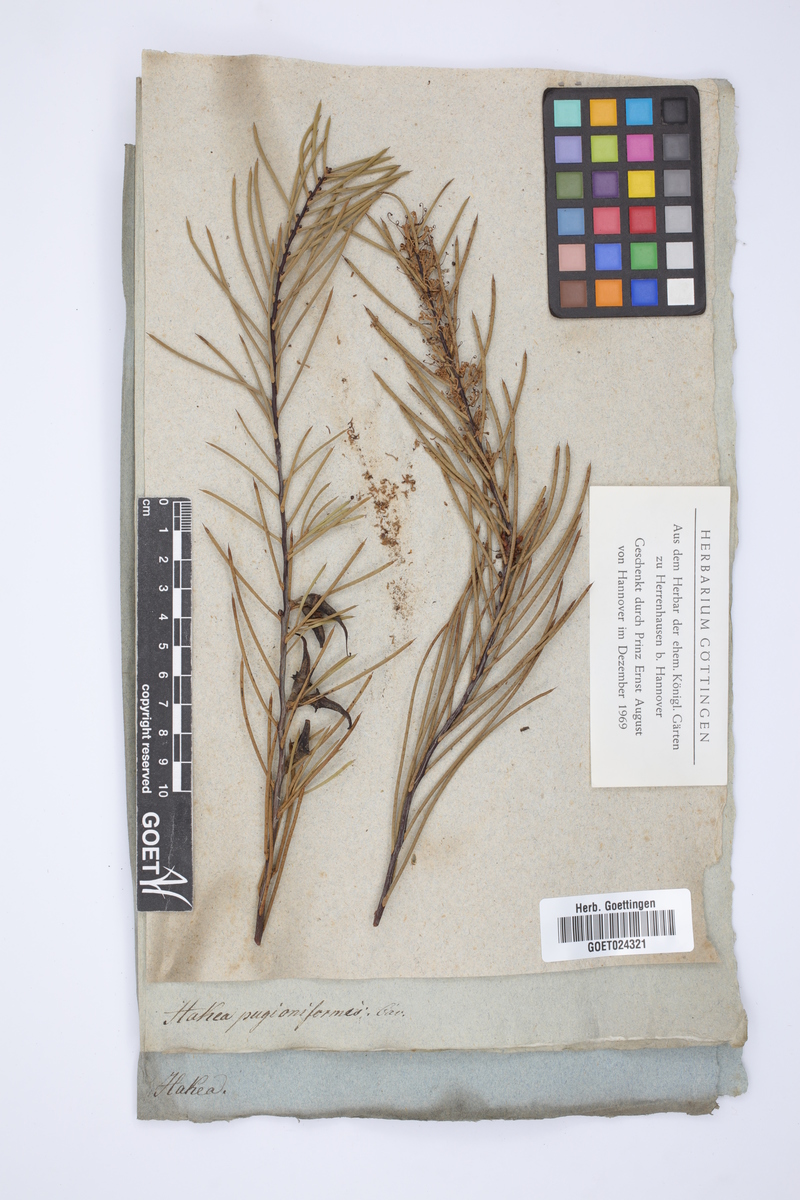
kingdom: Plantae
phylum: Tracheophyta
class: Magnoliopsida
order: Proteales
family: Proteaceae
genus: Hakea
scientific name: Hakea teretifolia
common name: Dagger hakea
